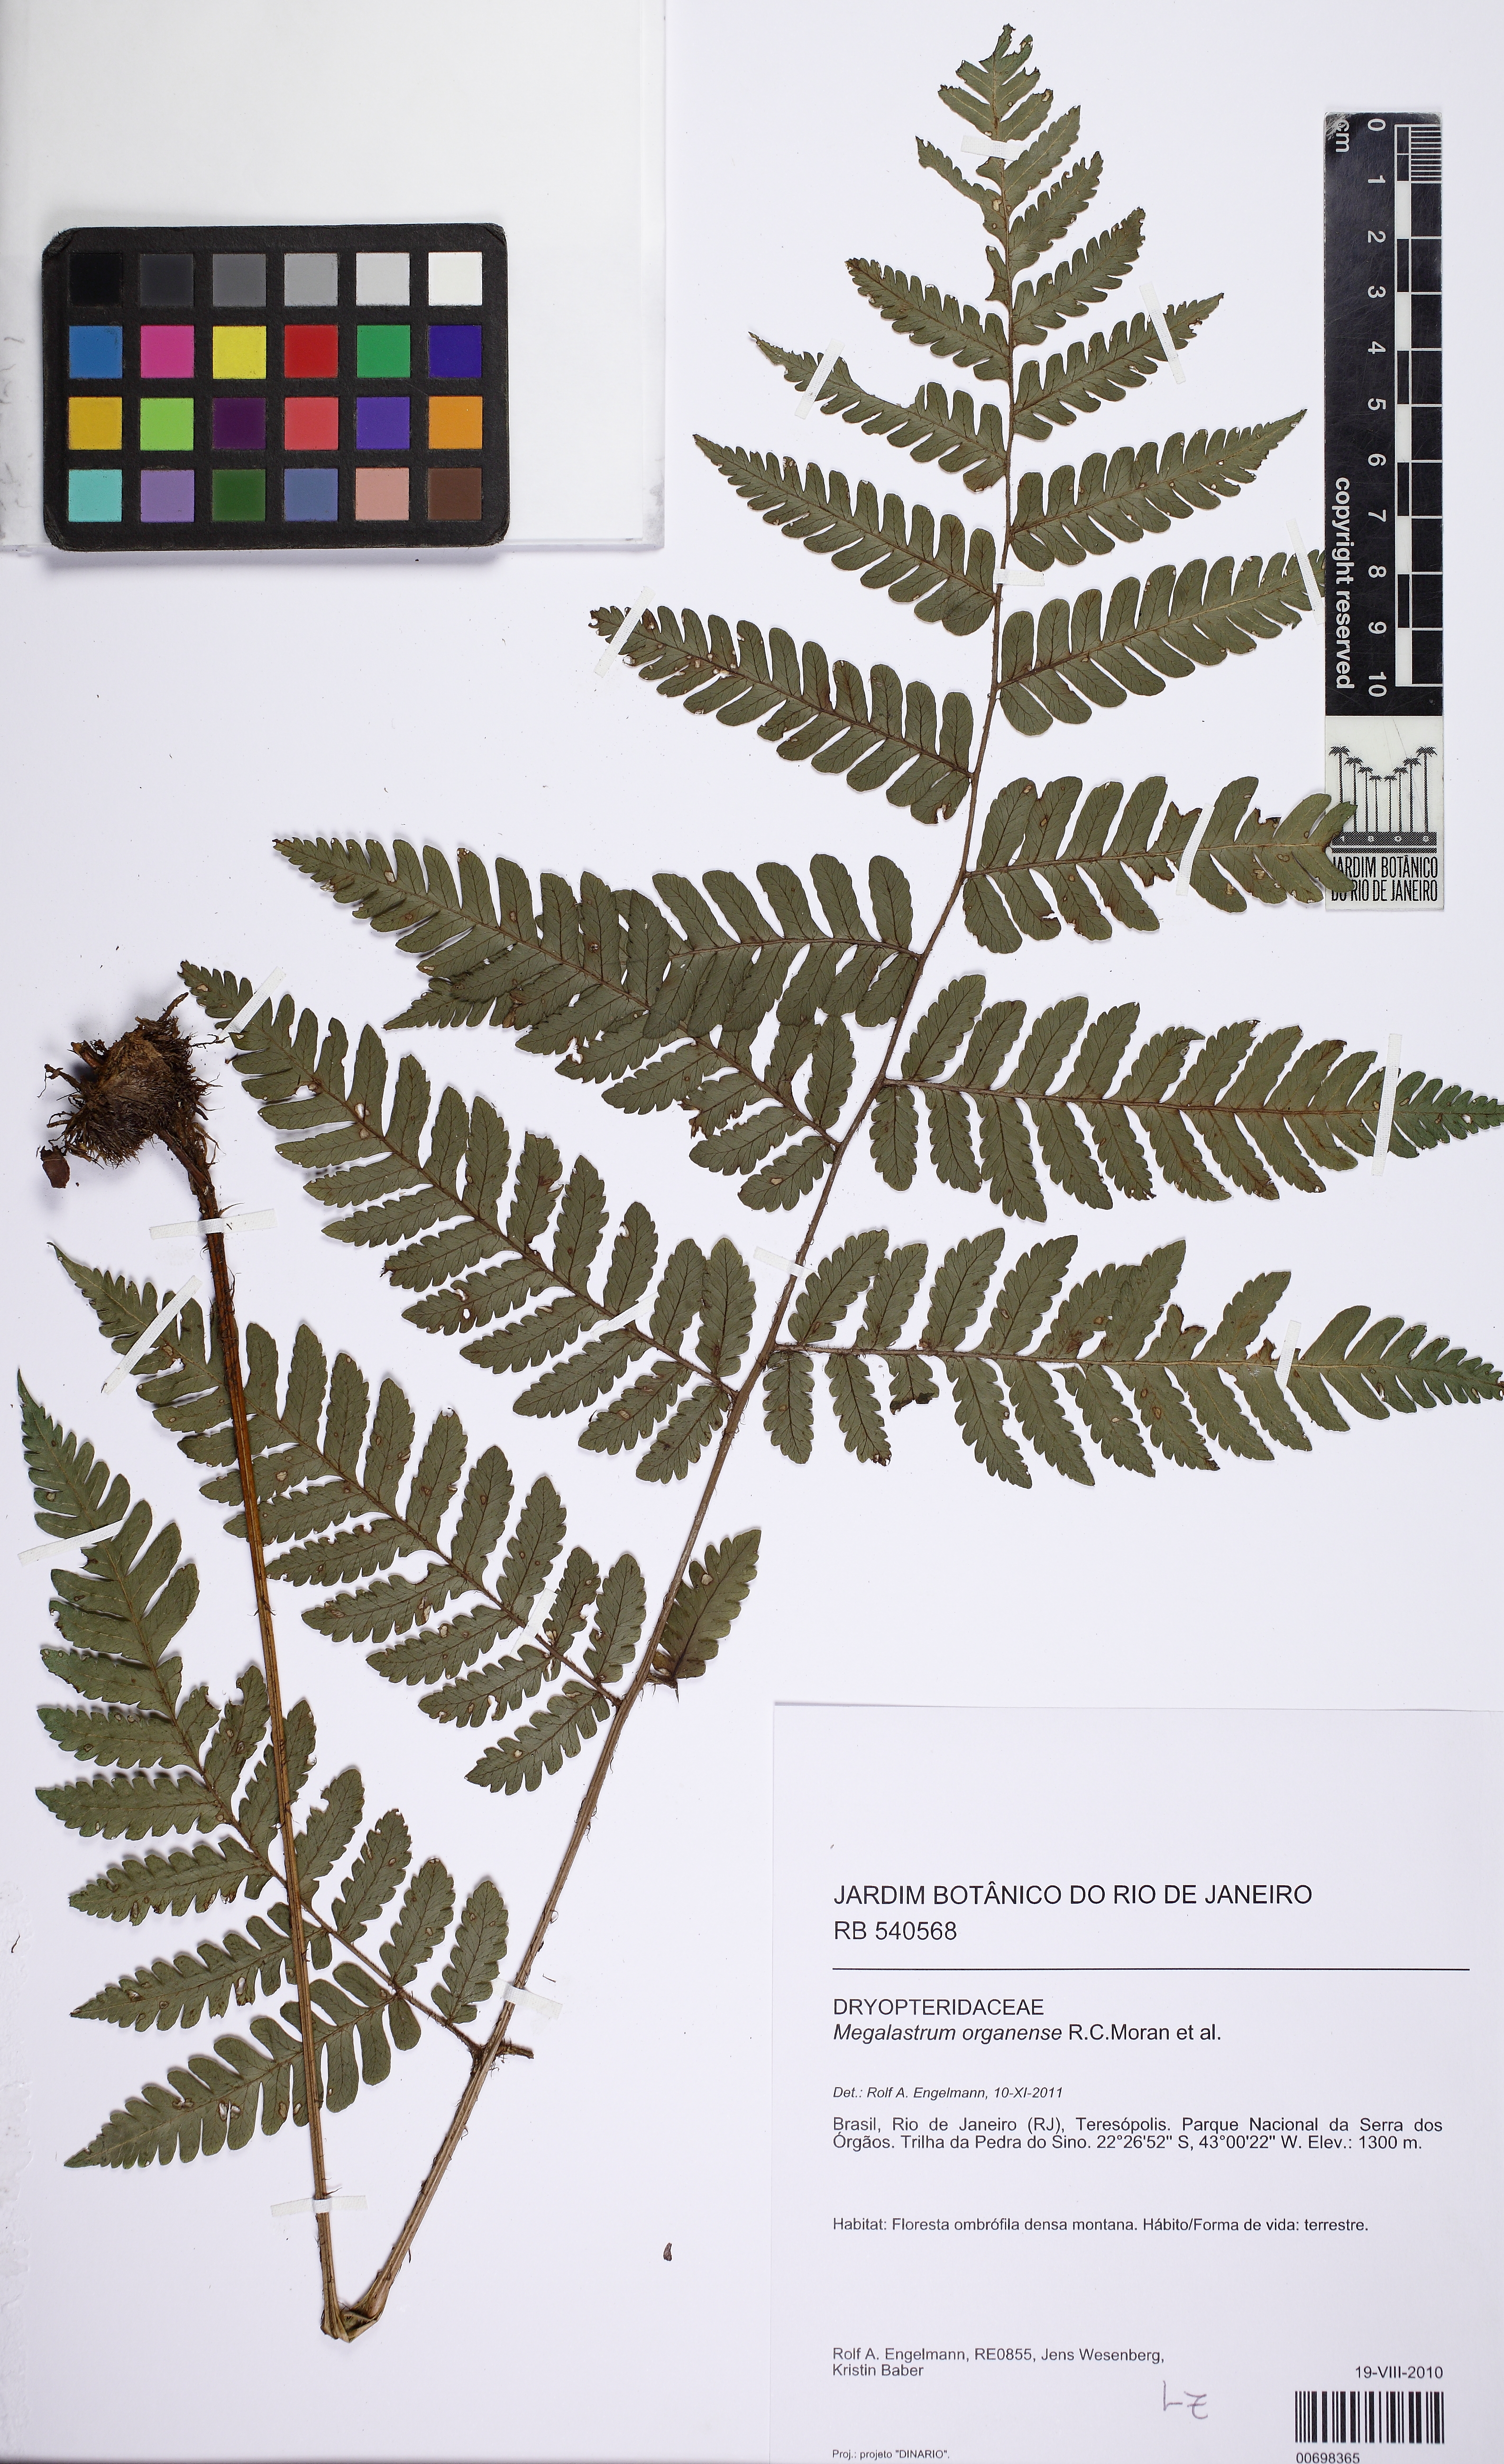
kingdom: Plantae
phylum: Tracheophyta
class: Polypodiopsida
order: Polypodiales
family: Dryopteridaceae
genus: Megalastrum
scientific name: Megalastrum organense
